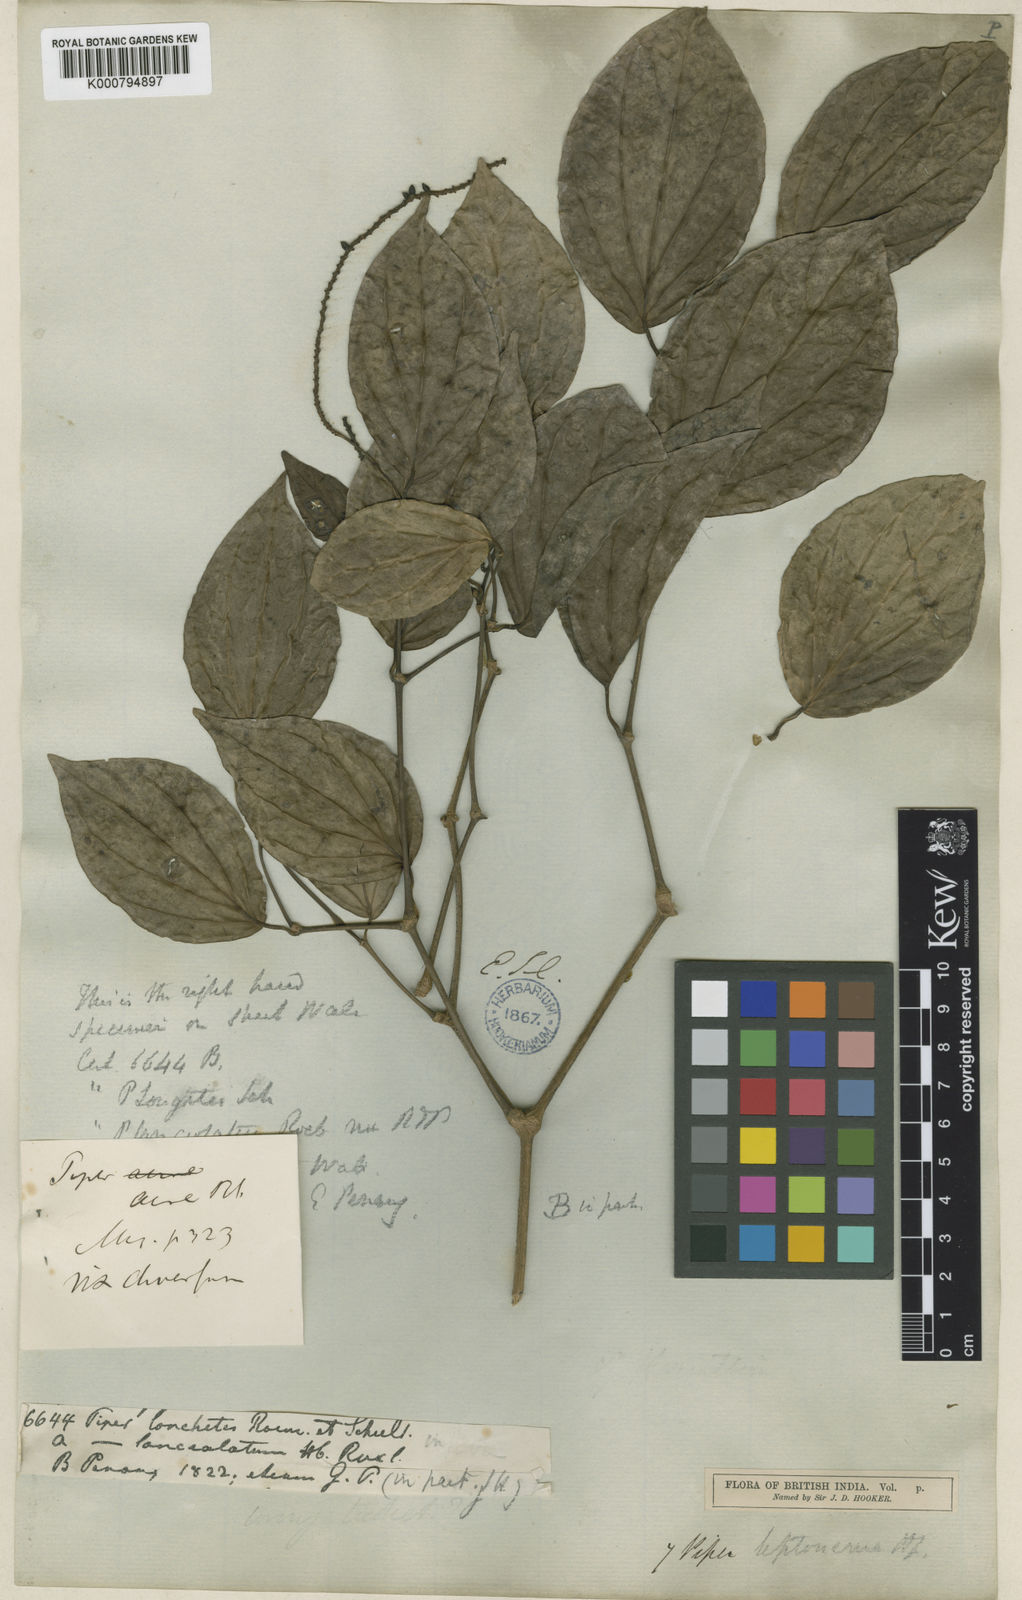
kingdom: Plantae
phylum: Tracheophyta
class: Magnoliopsida
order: Piperales
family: Piperaceae
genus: Piper
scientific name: Piper
